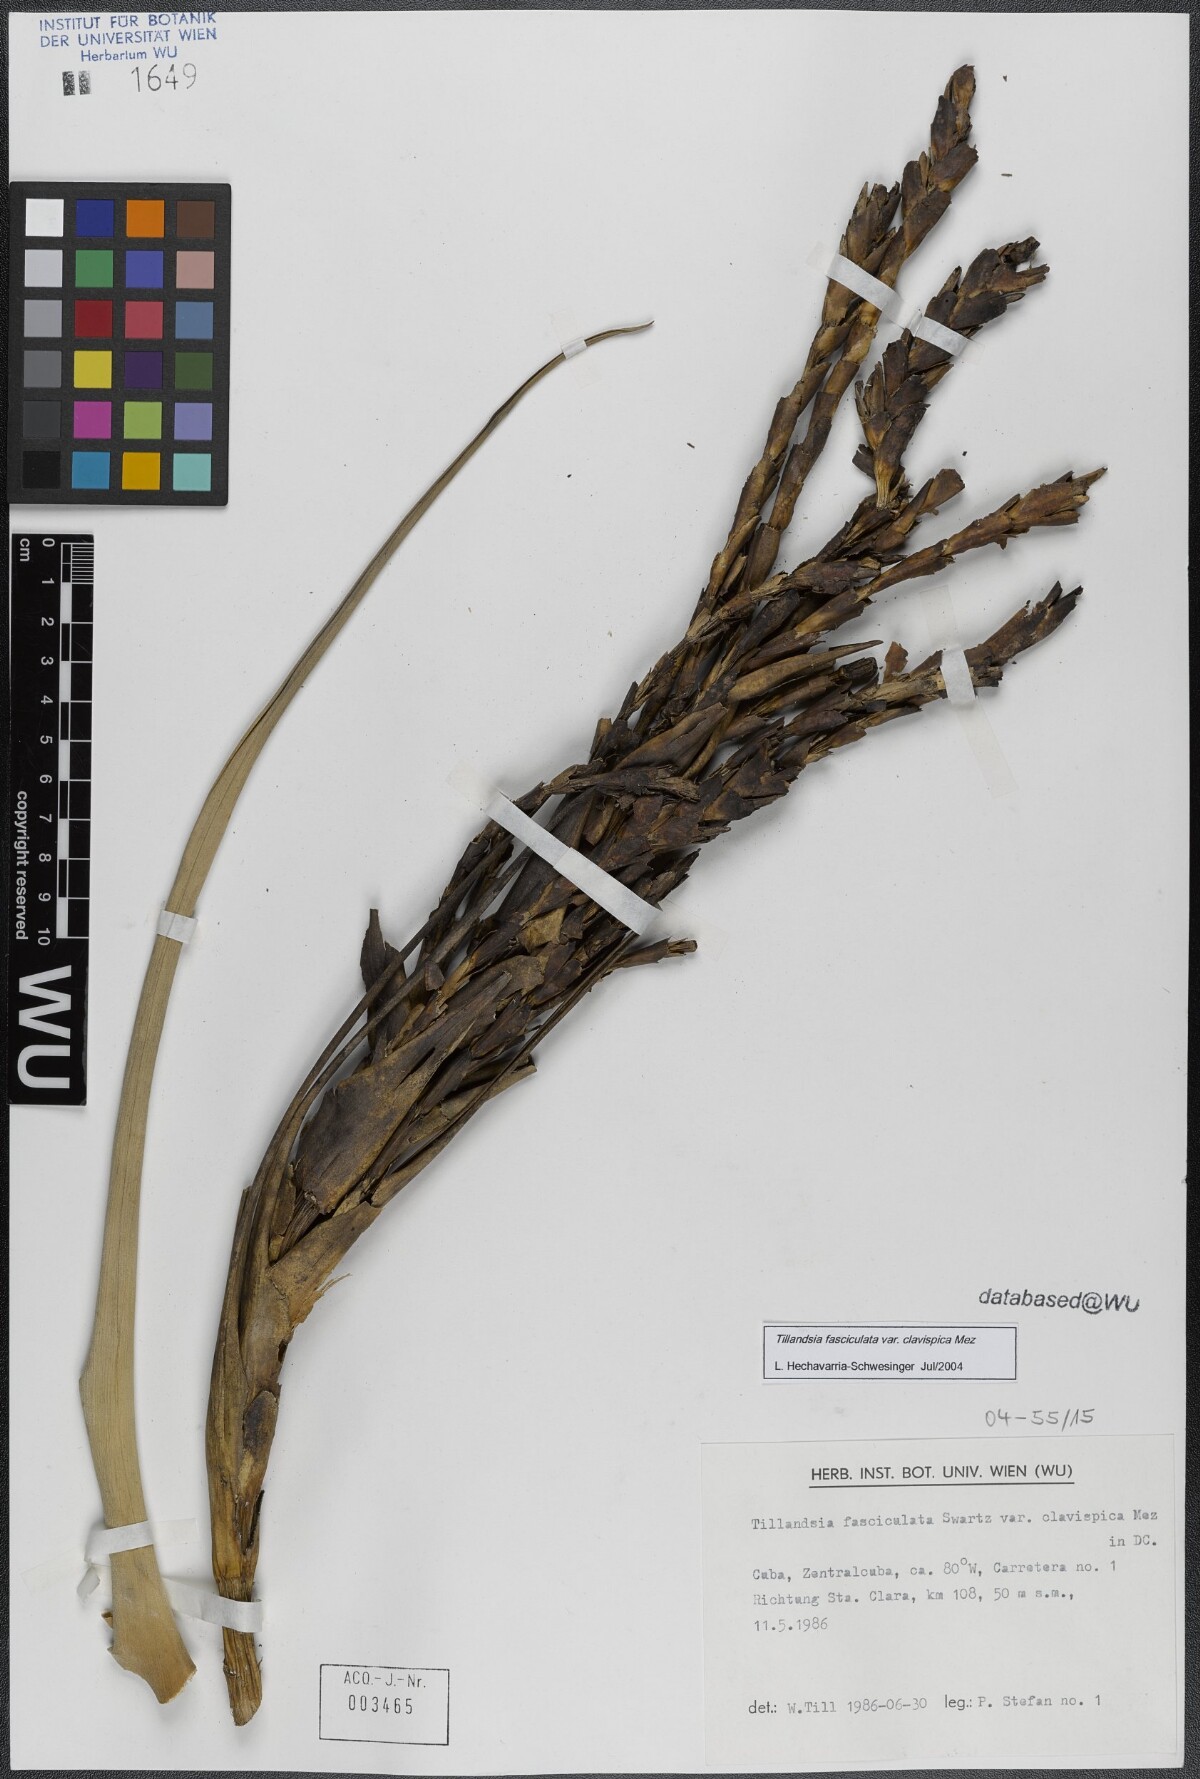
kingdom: Plantae
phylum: Tracheophyta
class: Liliopsida
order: Poales
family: Bromeliaceae
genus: Tillandsia
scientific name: Tillandsia fasciculata
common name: Giant airplant
